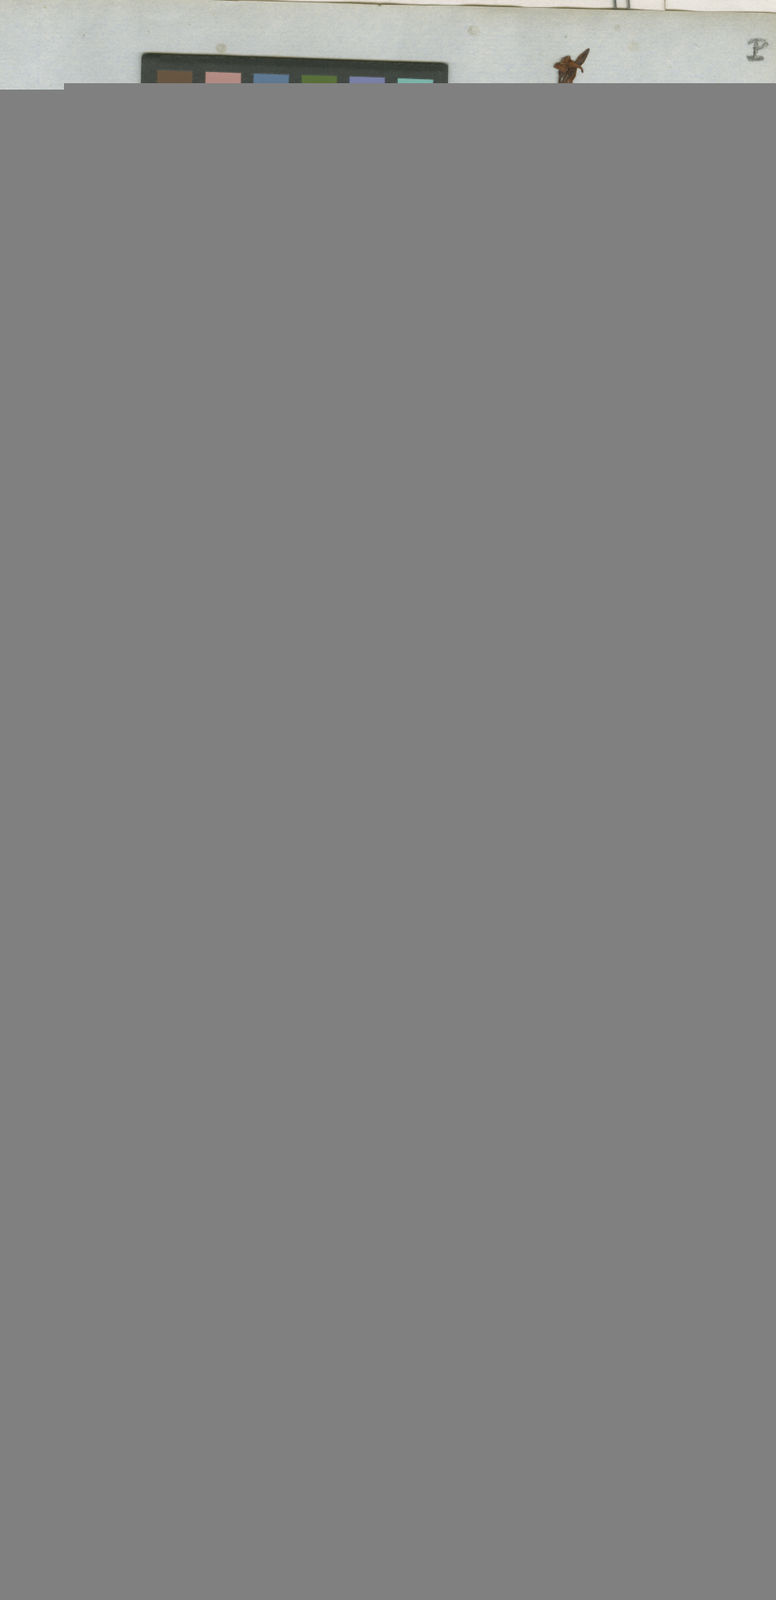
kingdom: Plantae
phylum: Tracheophyta
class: Magnoliopsida
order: Gentianales
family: Apocynaceae
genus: Mandevilla
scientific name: Mandevilla tenuifolia
